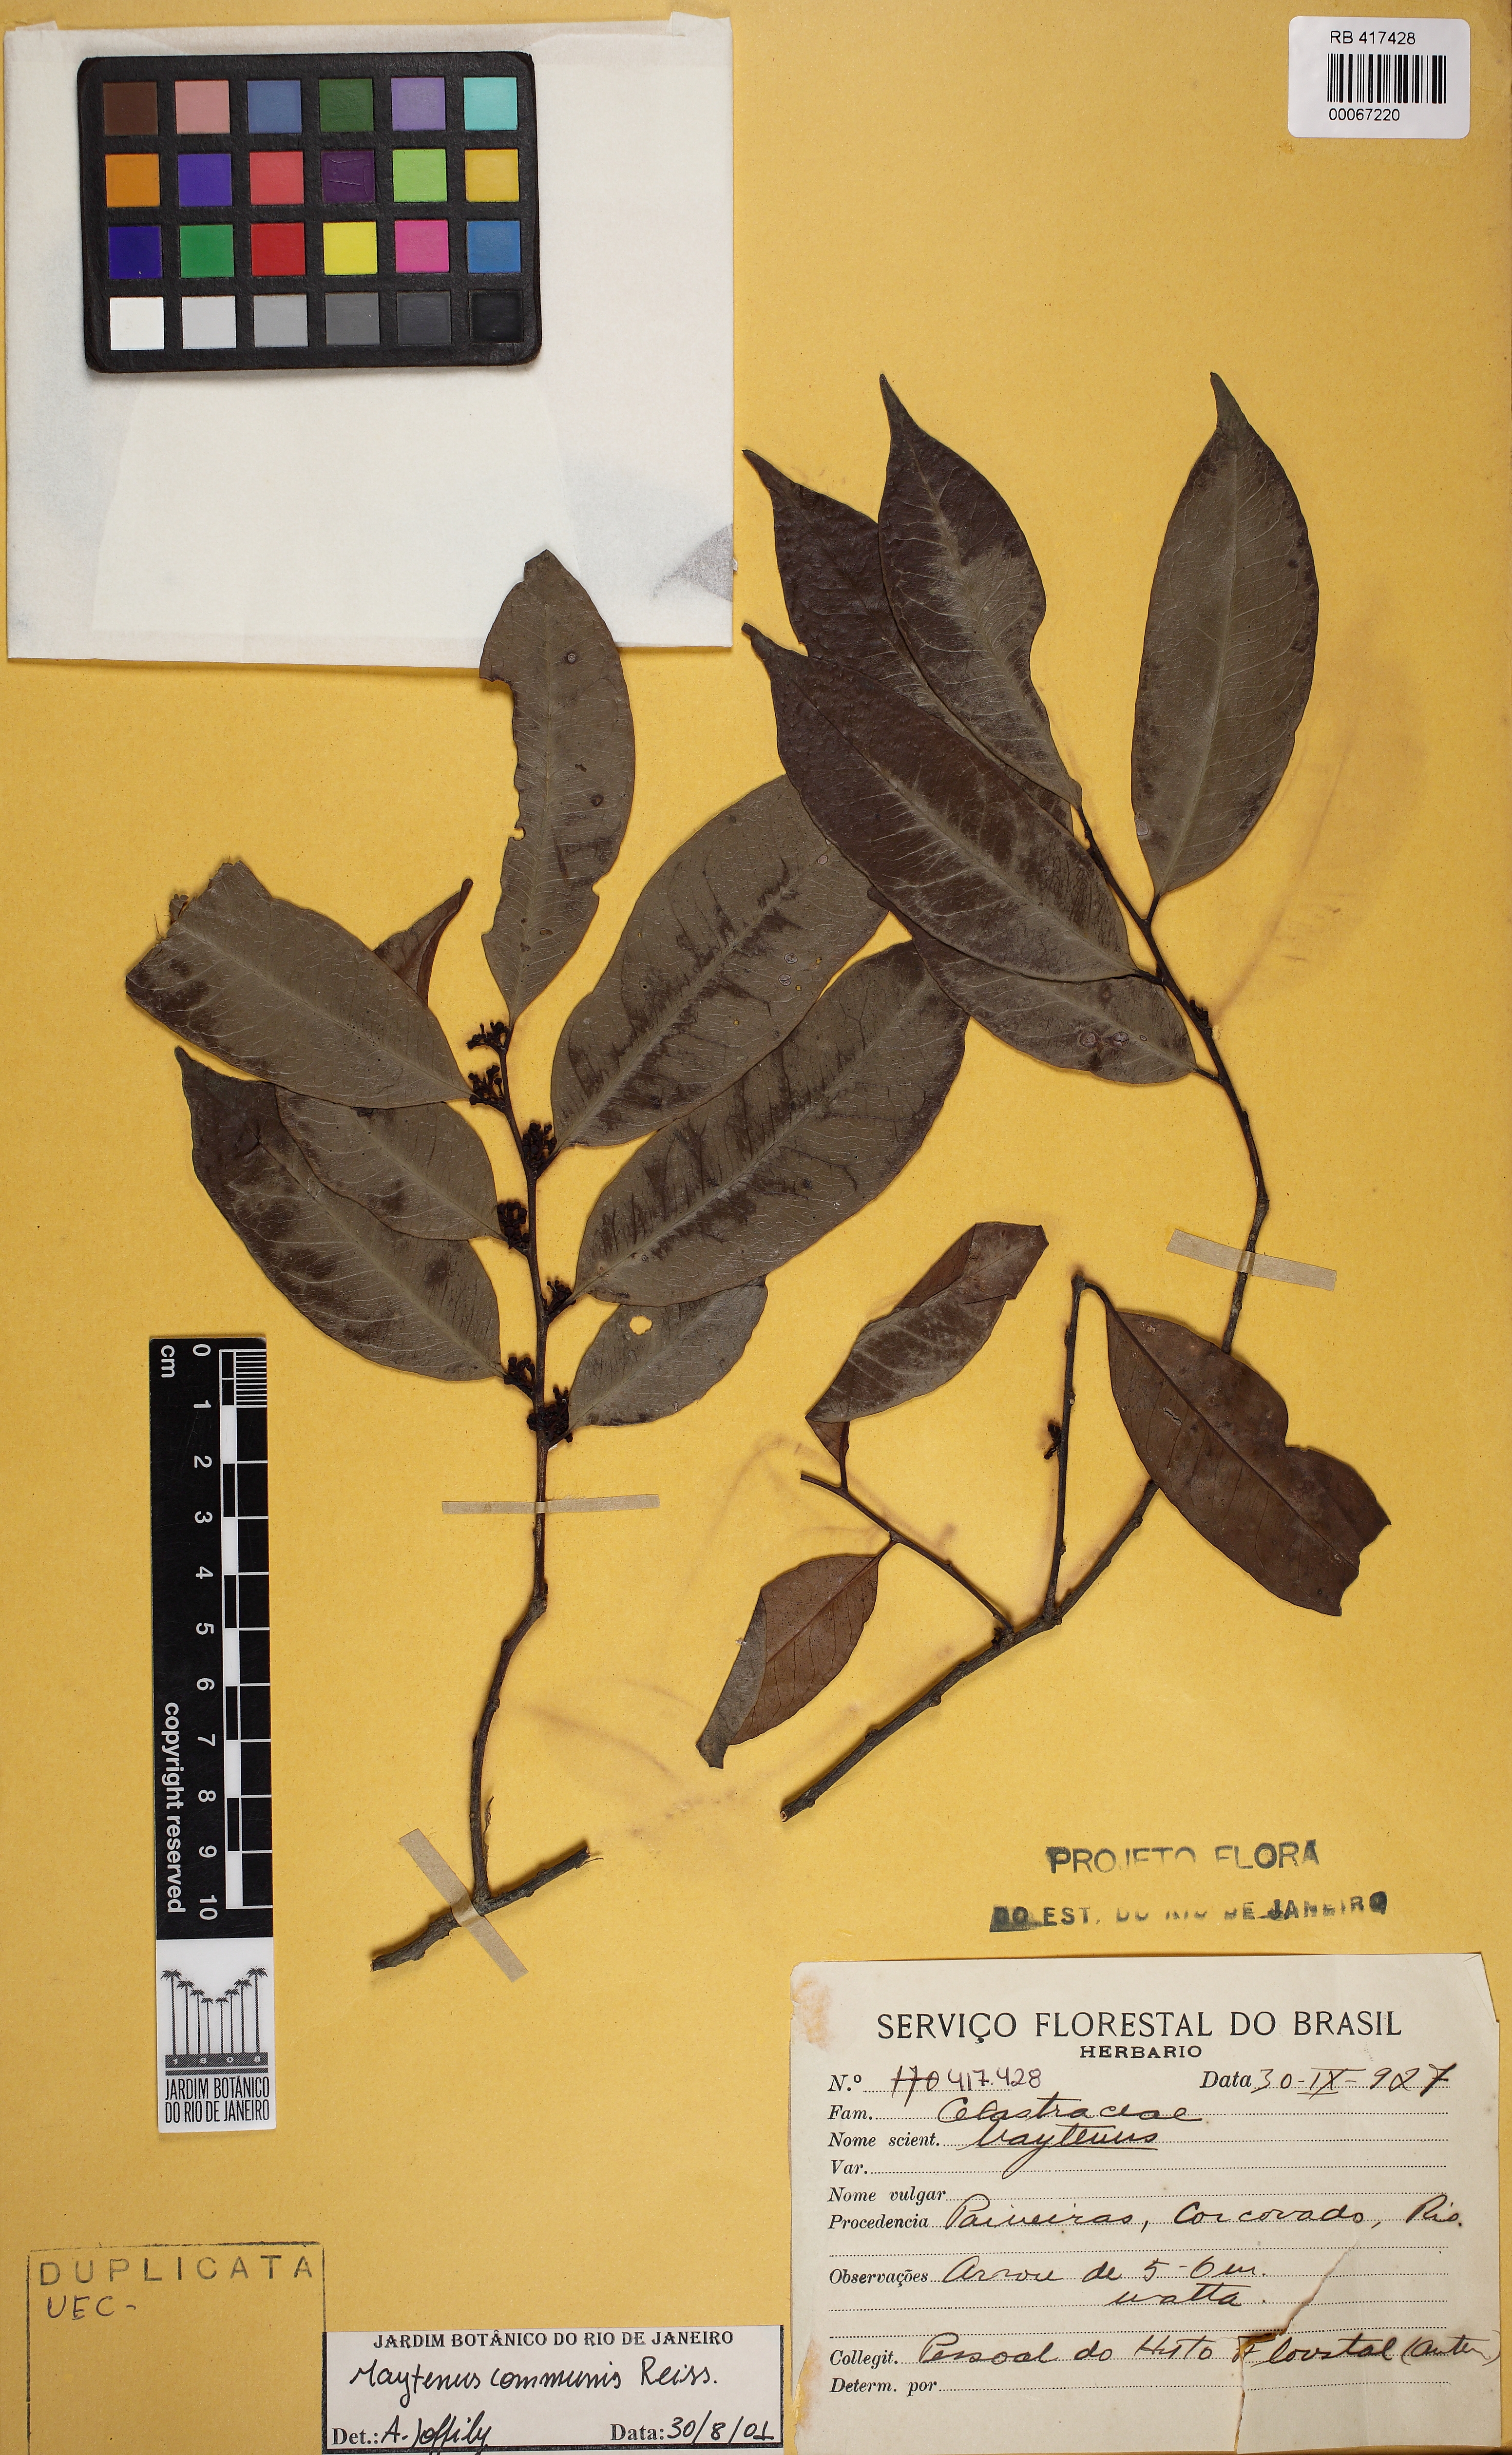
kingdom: Plantae
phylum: Tracheophyta
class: Magnoliopsida
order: Celastrales
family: Celastraceae
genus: Monteverdia
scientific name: Monteverdia communis
